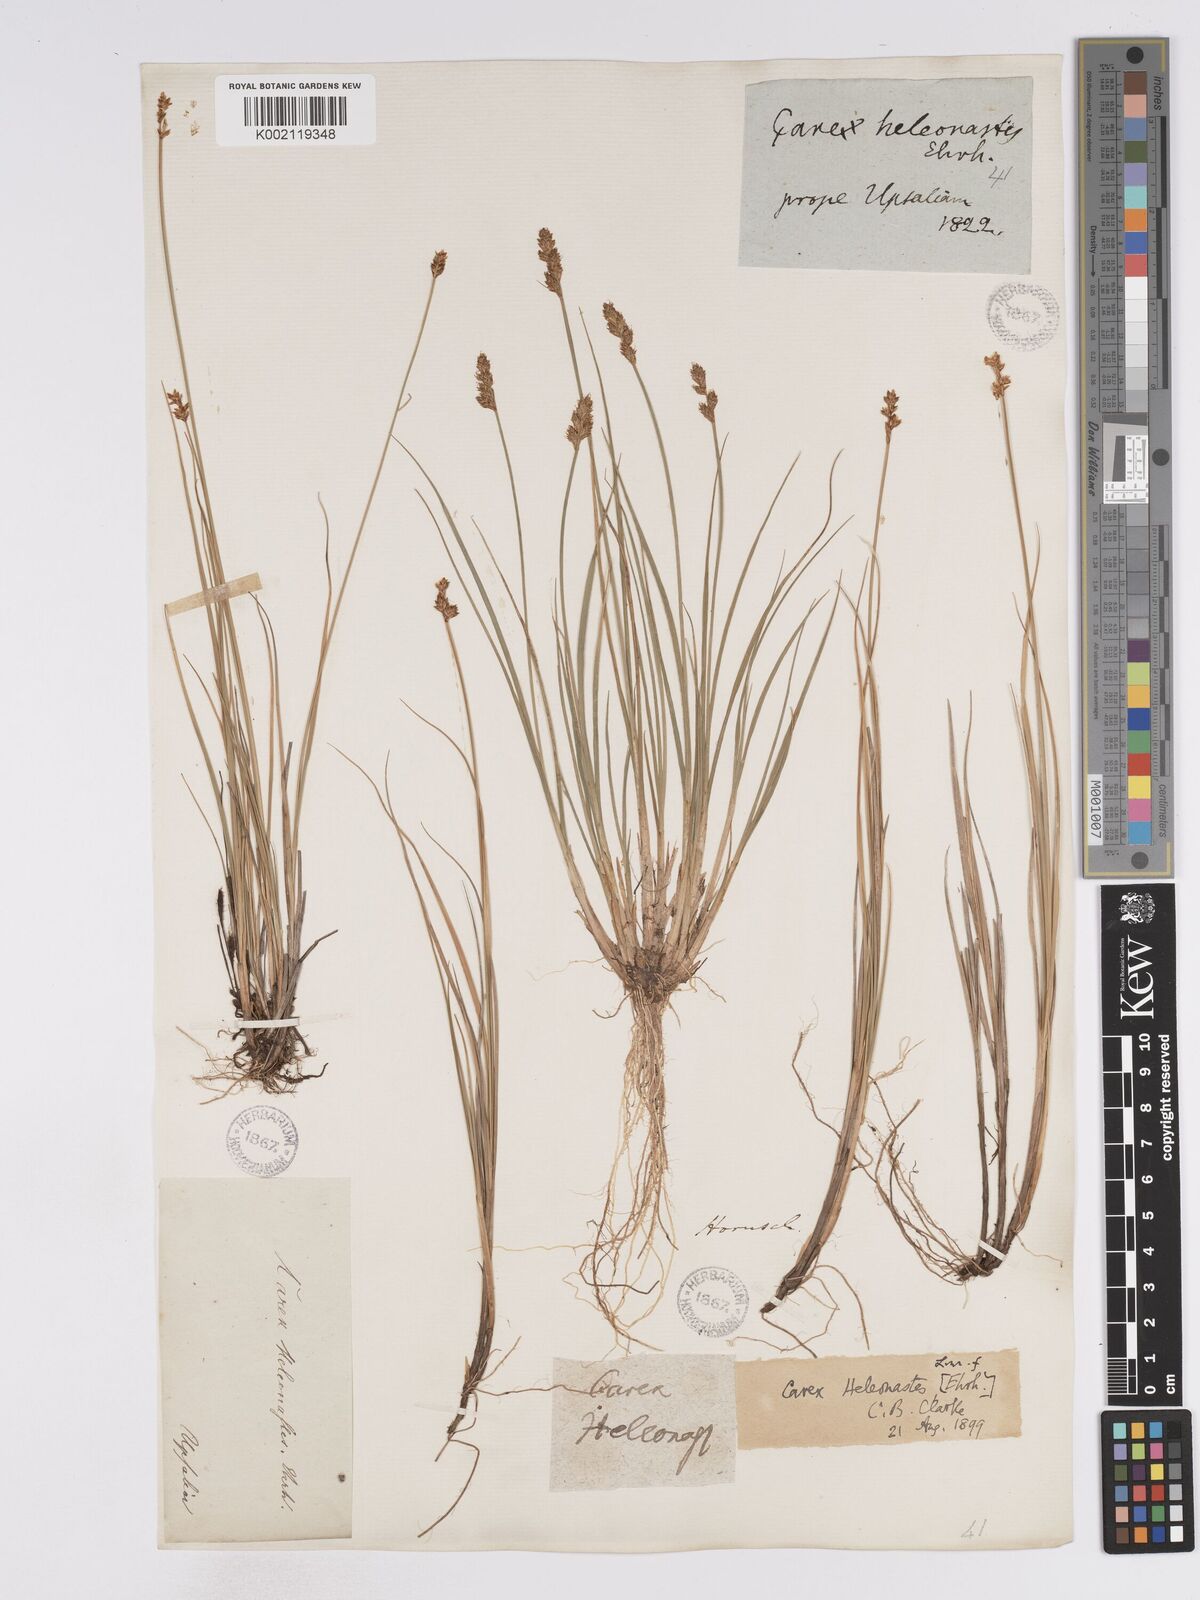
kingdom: Plantae
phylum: Tracheophyta
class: Liliopsida
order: Poales
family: Cyperaceae
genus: Carex
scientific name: Carex heleonastes
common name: Hudson bay sedge
